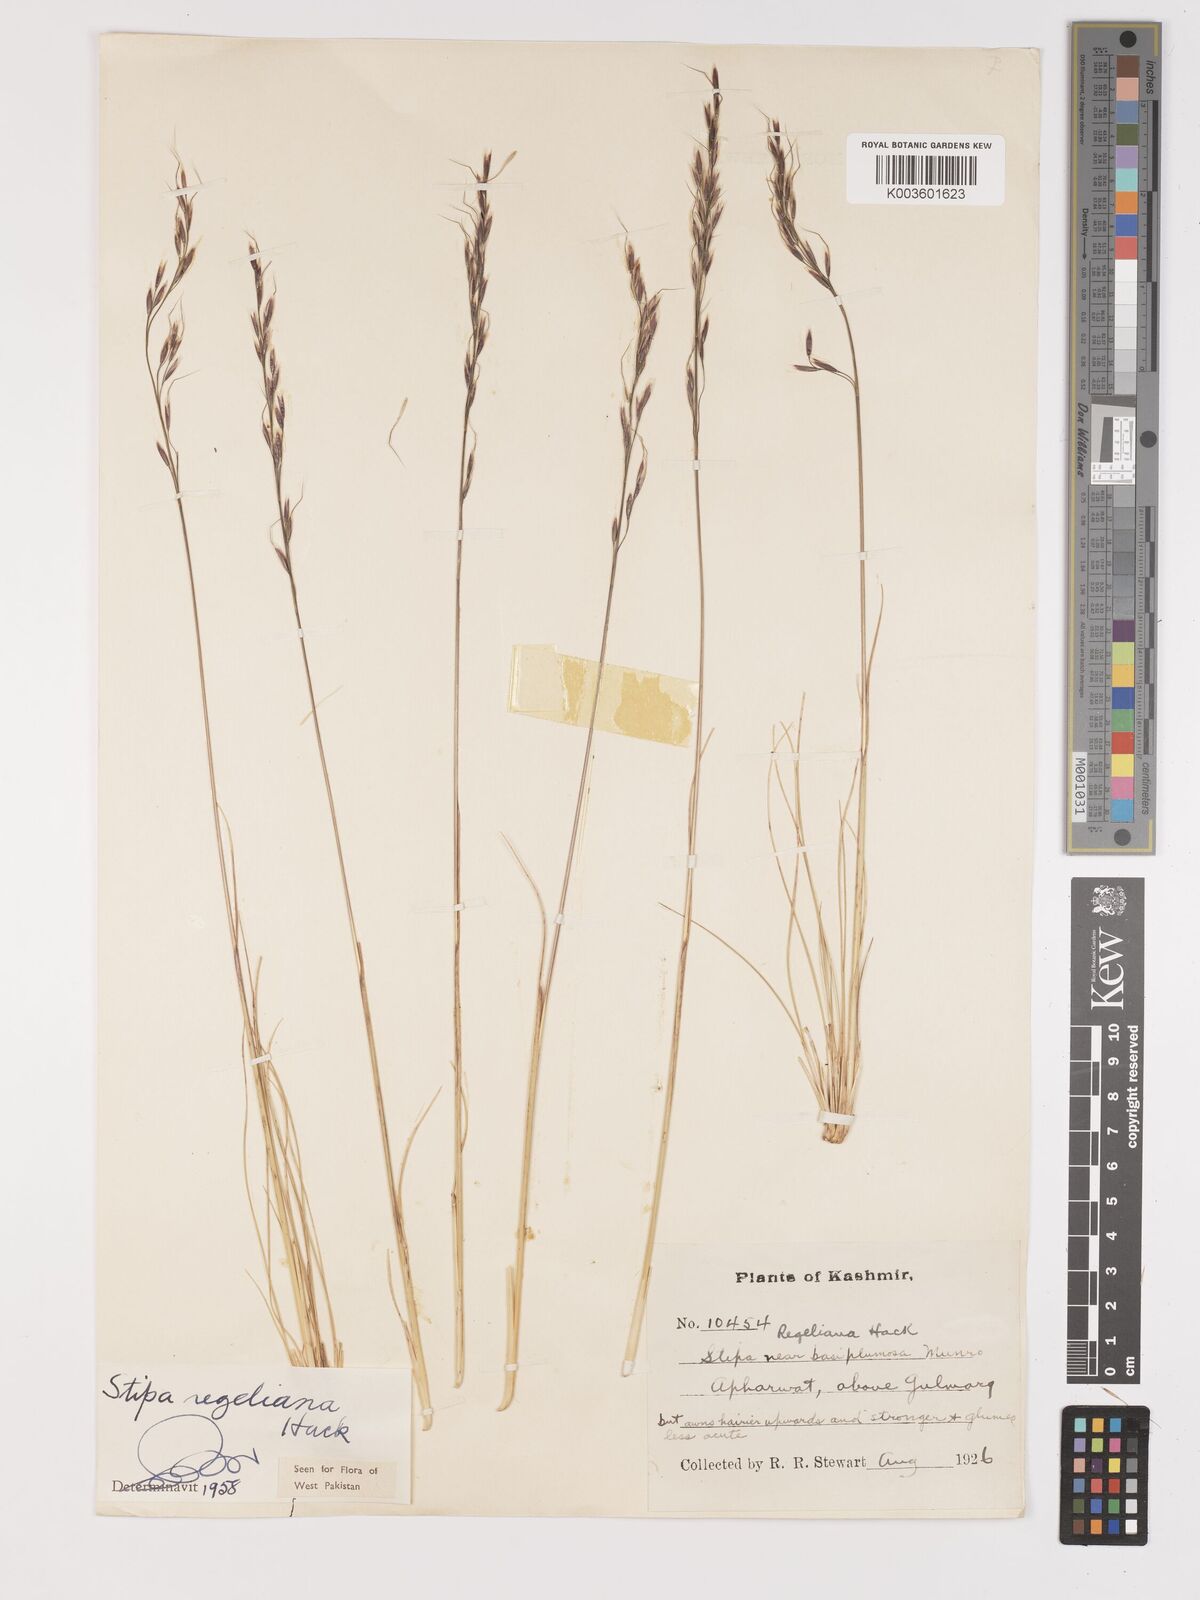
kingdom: Plantae
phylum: Tracheophyta
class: Liliopsida
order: Poales
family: Poaceae
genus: Stipa
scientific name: Stipa regeliana
